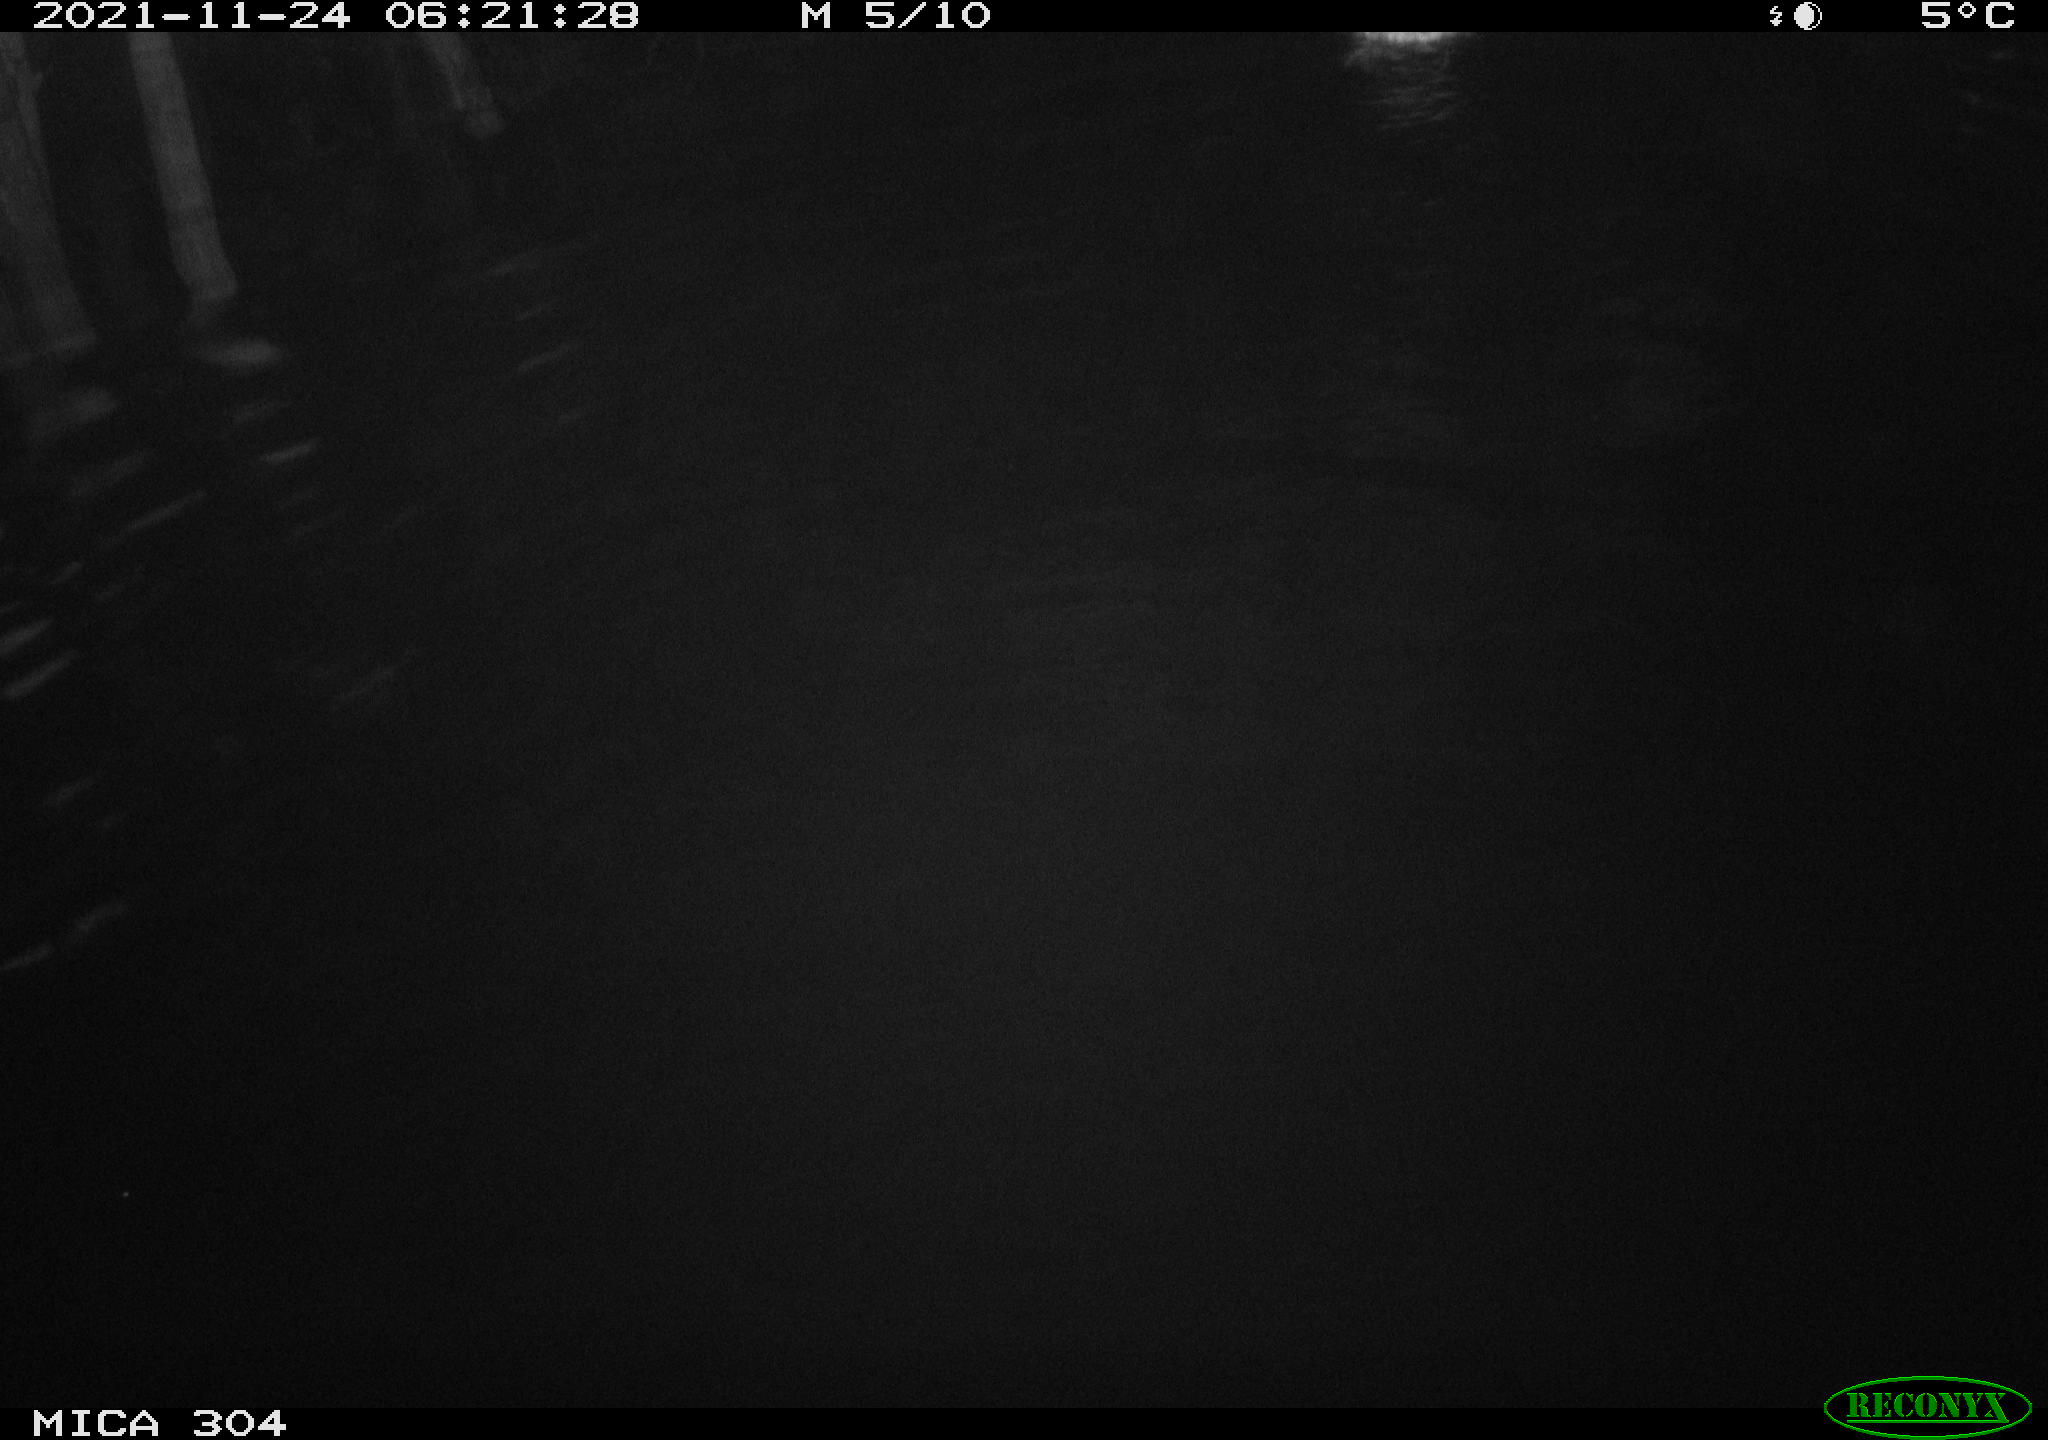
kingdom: Animalia
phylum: Chordata
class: Aves
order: Anseriformes
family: Anatidae
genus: Anas
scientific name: Anas platyrhynchos
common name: Mallard
